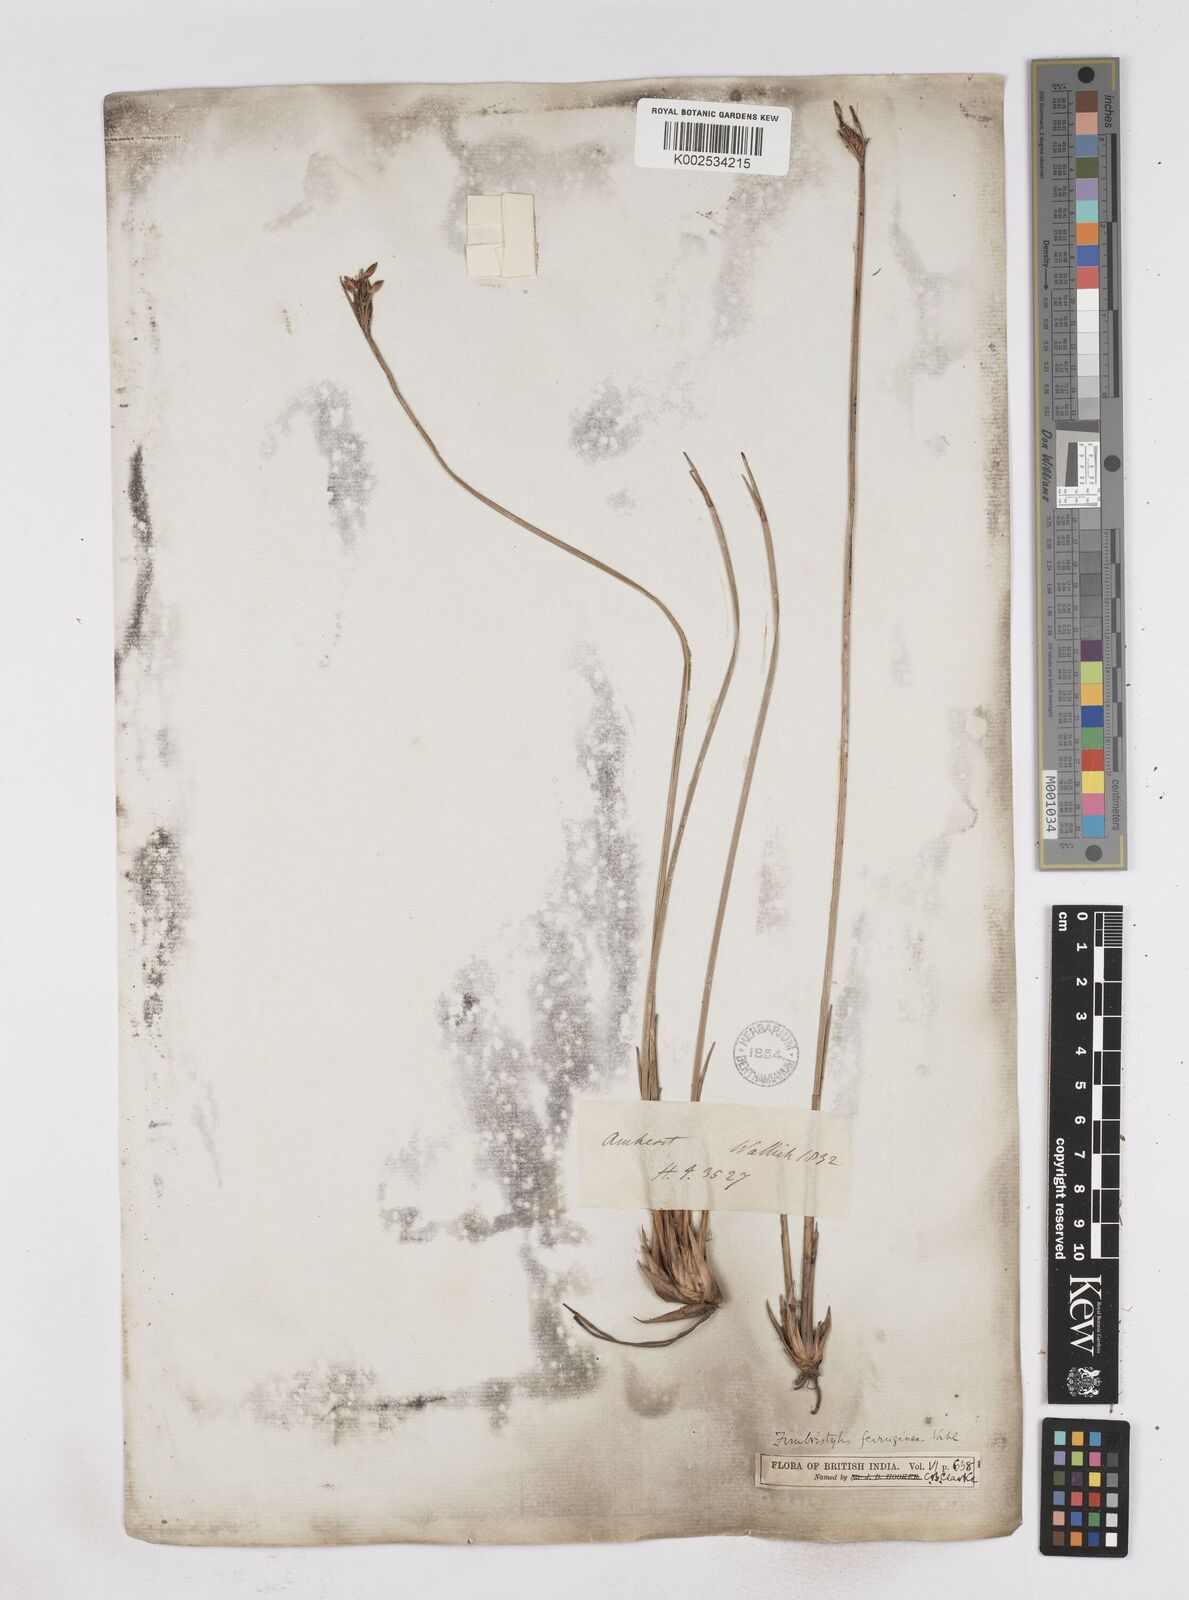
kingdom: Plantae
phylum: Tracheophyta
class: Liliopsida
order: Poales
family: Cyperaceae
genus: Fimbristylis
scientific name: Fimbristylis ferruginea
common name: West indian fimbry
